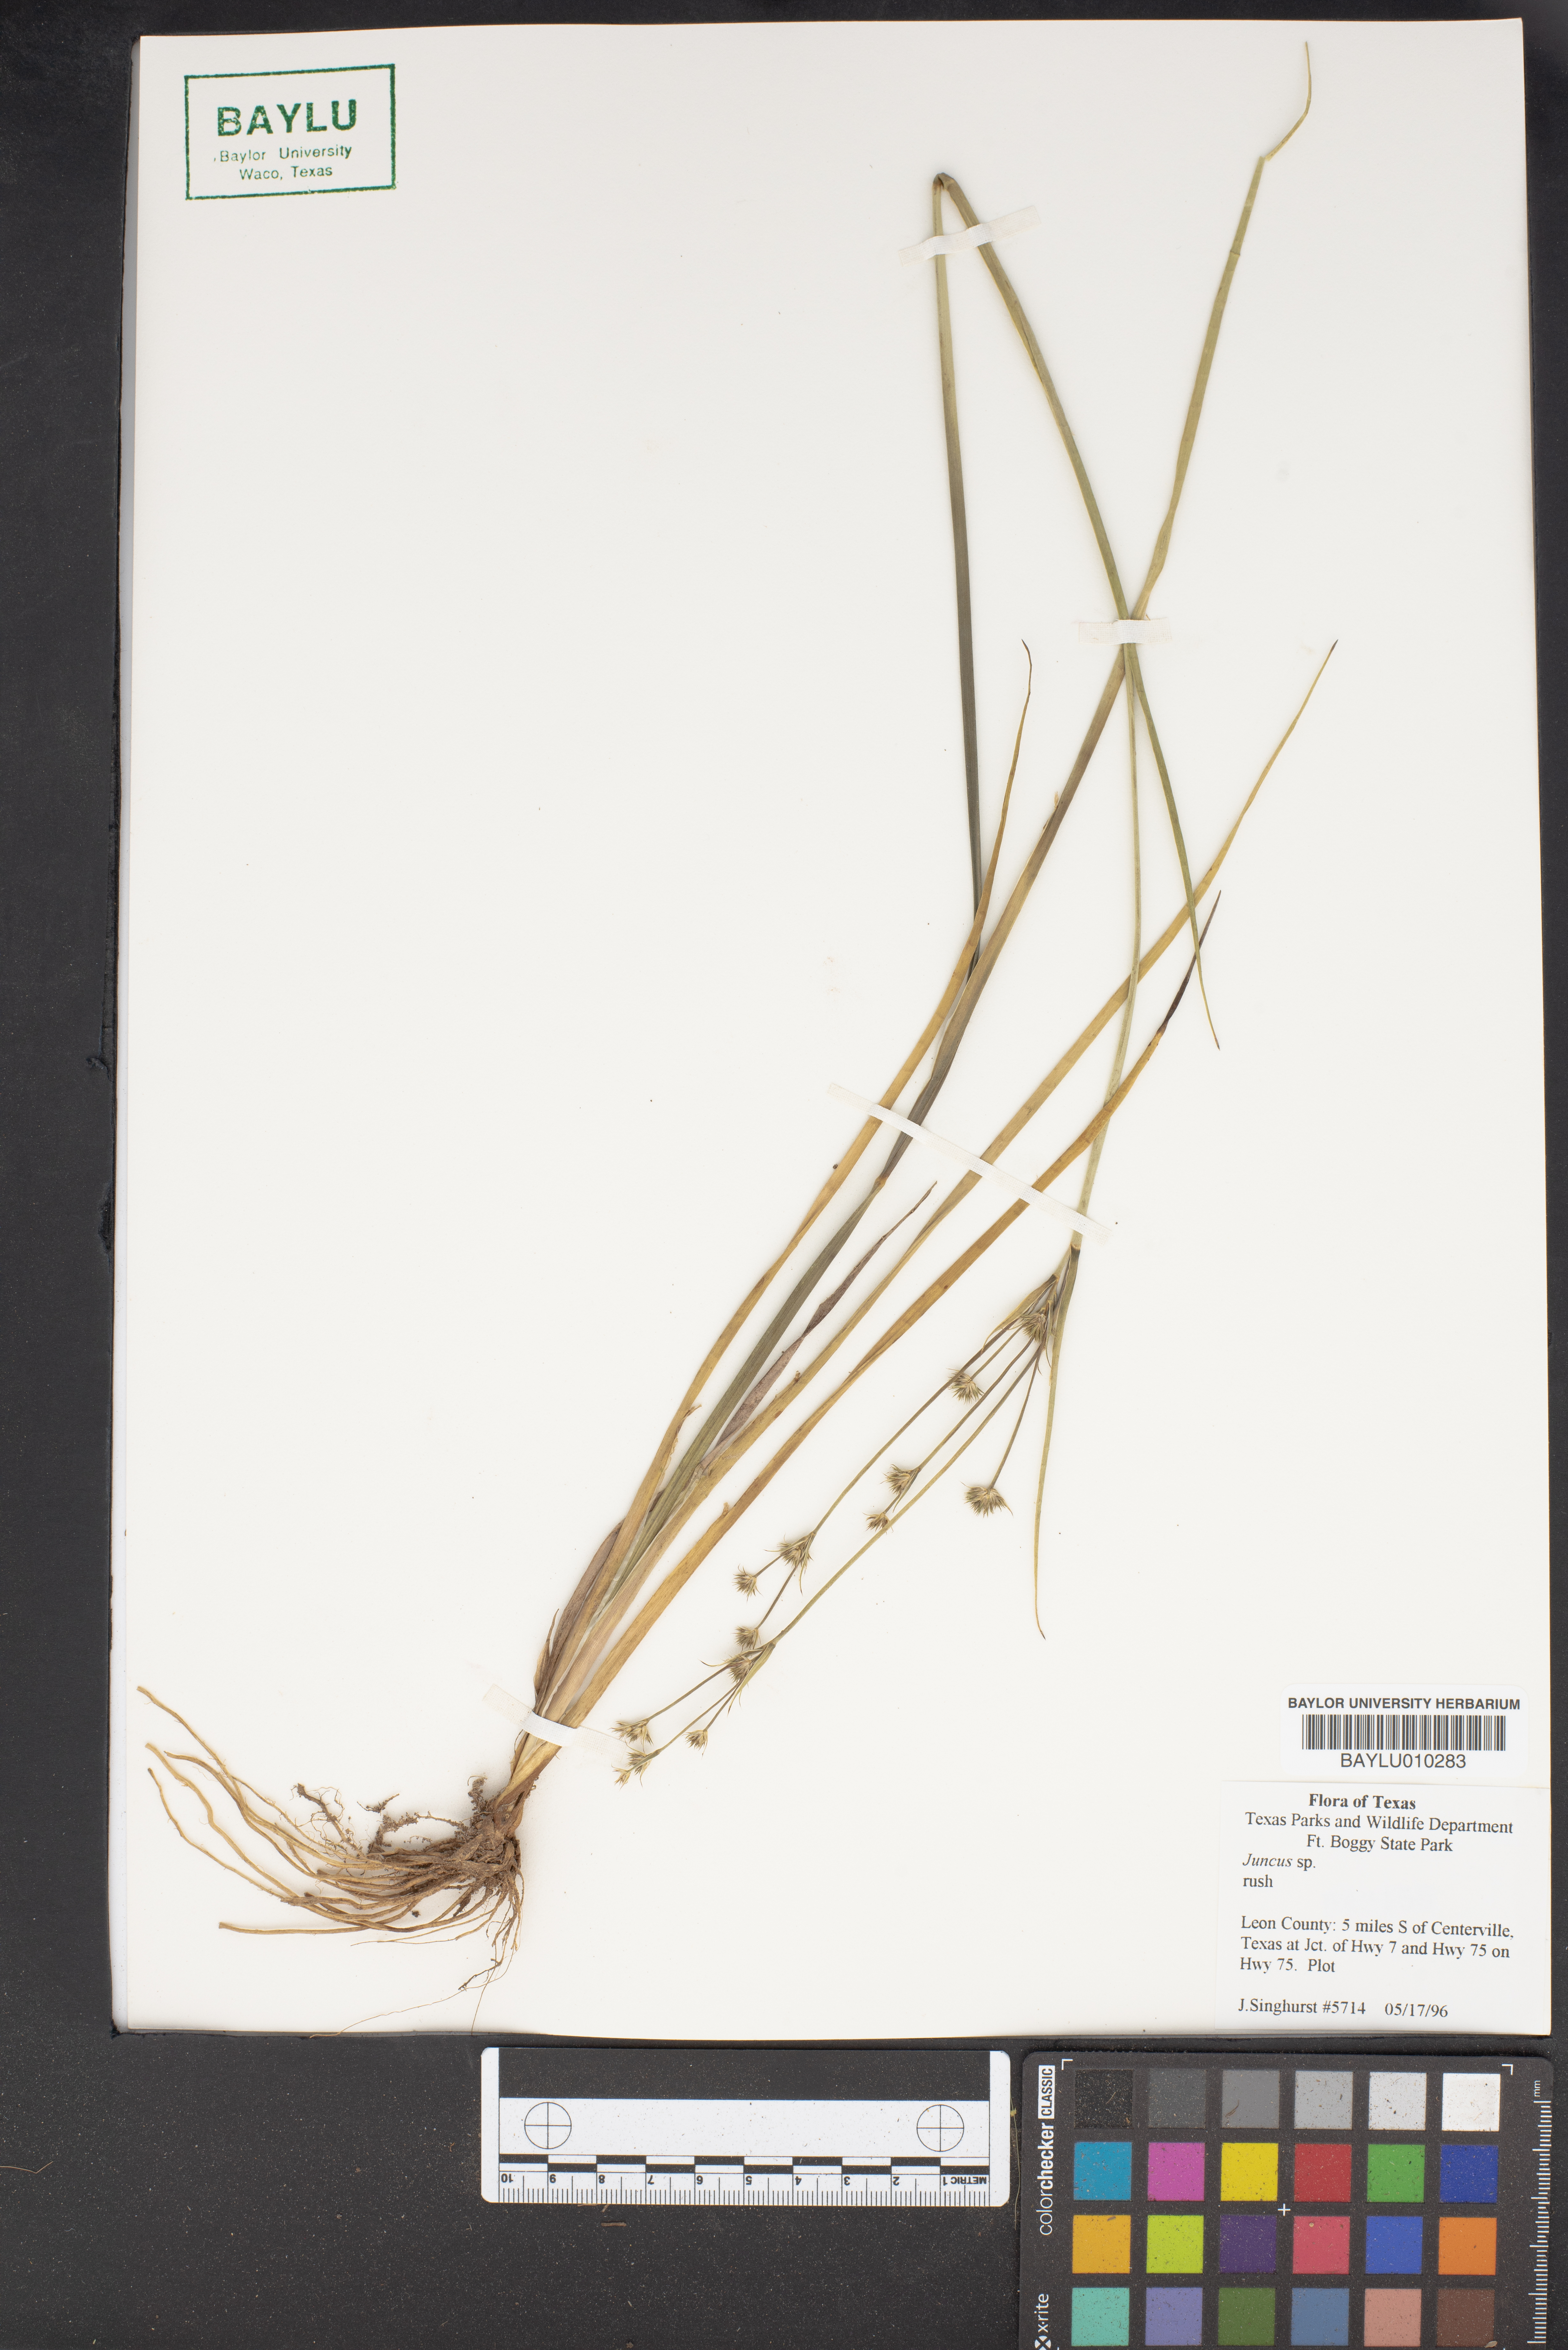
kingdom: Plantae
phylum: Tracheophyta
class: Liliopsida
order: Poales
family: Juncaceae
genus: Juncus
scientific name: Juncus
